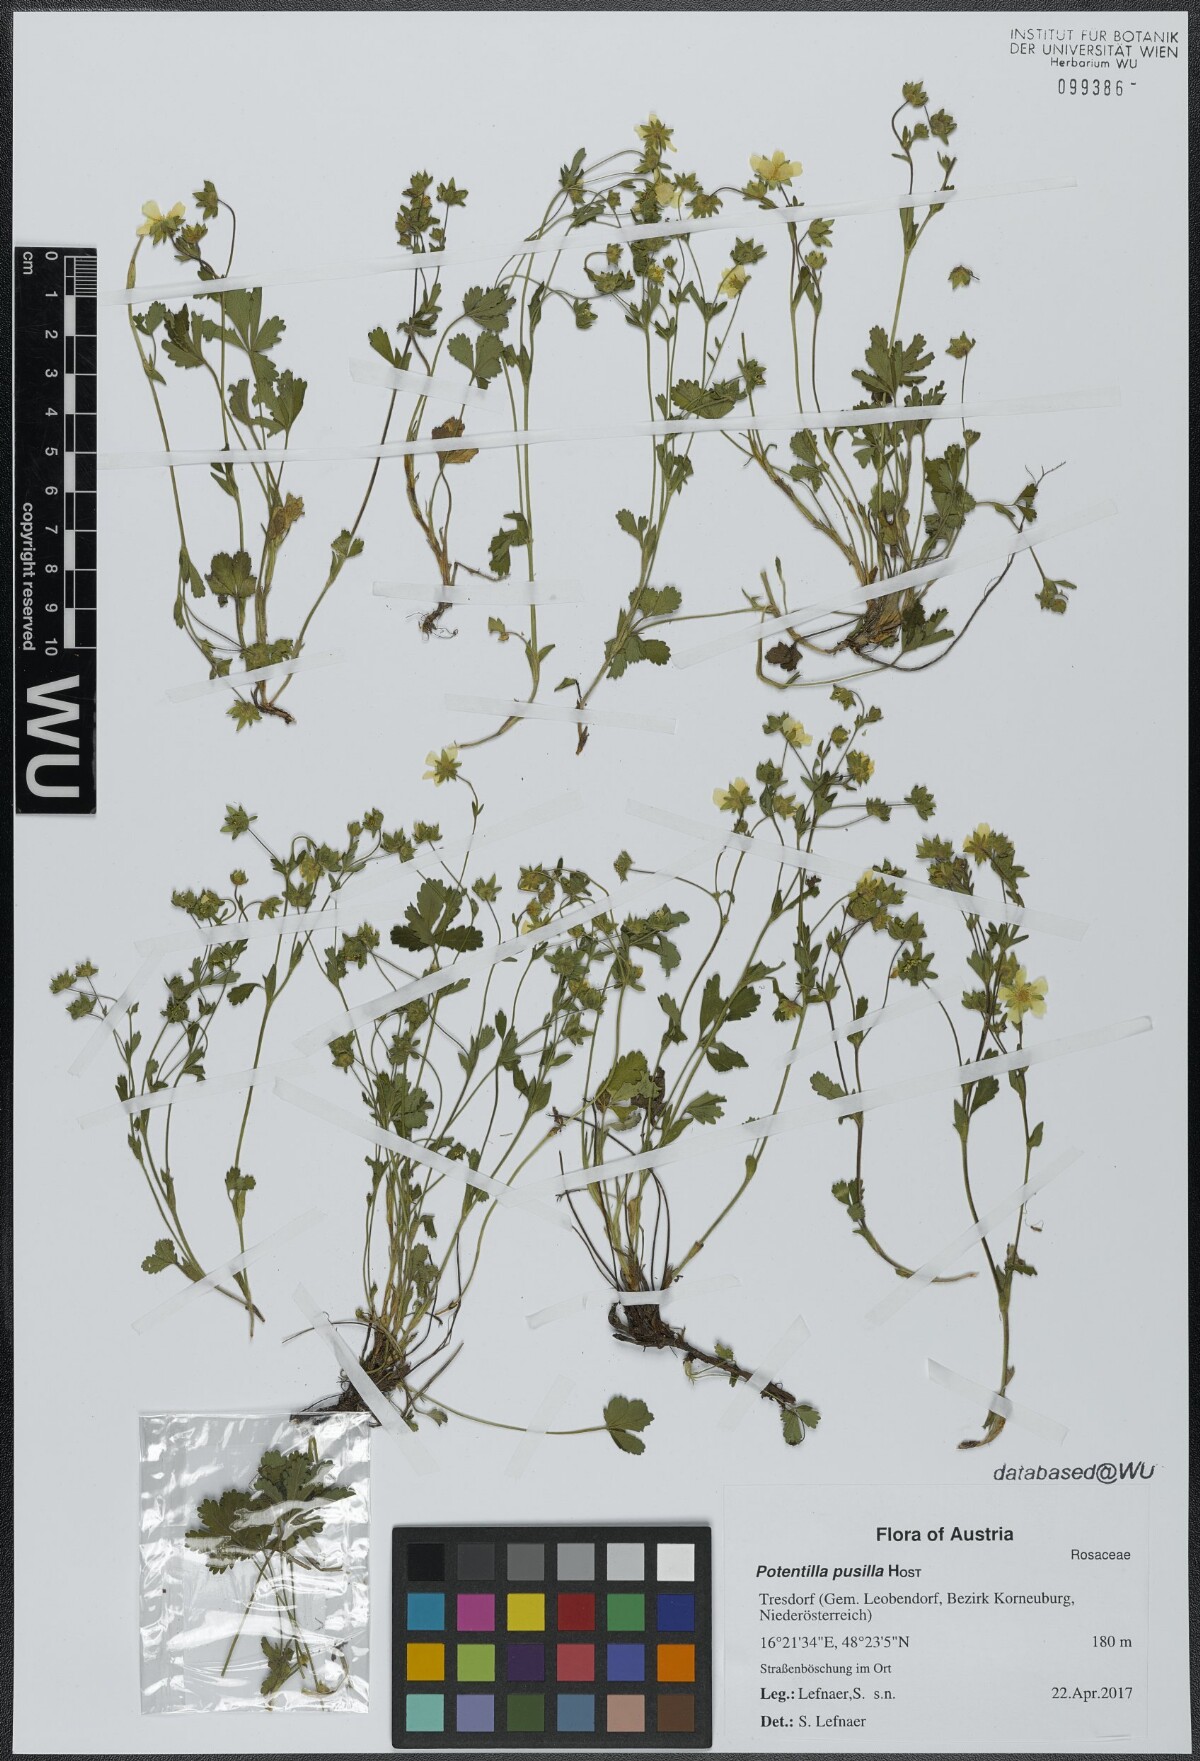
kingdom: Plantae
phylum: Tracheophyta
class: Magnoliopsida
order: Rosales
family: Rosaceae
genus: Potentilla
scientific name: Potentilla pusilla
